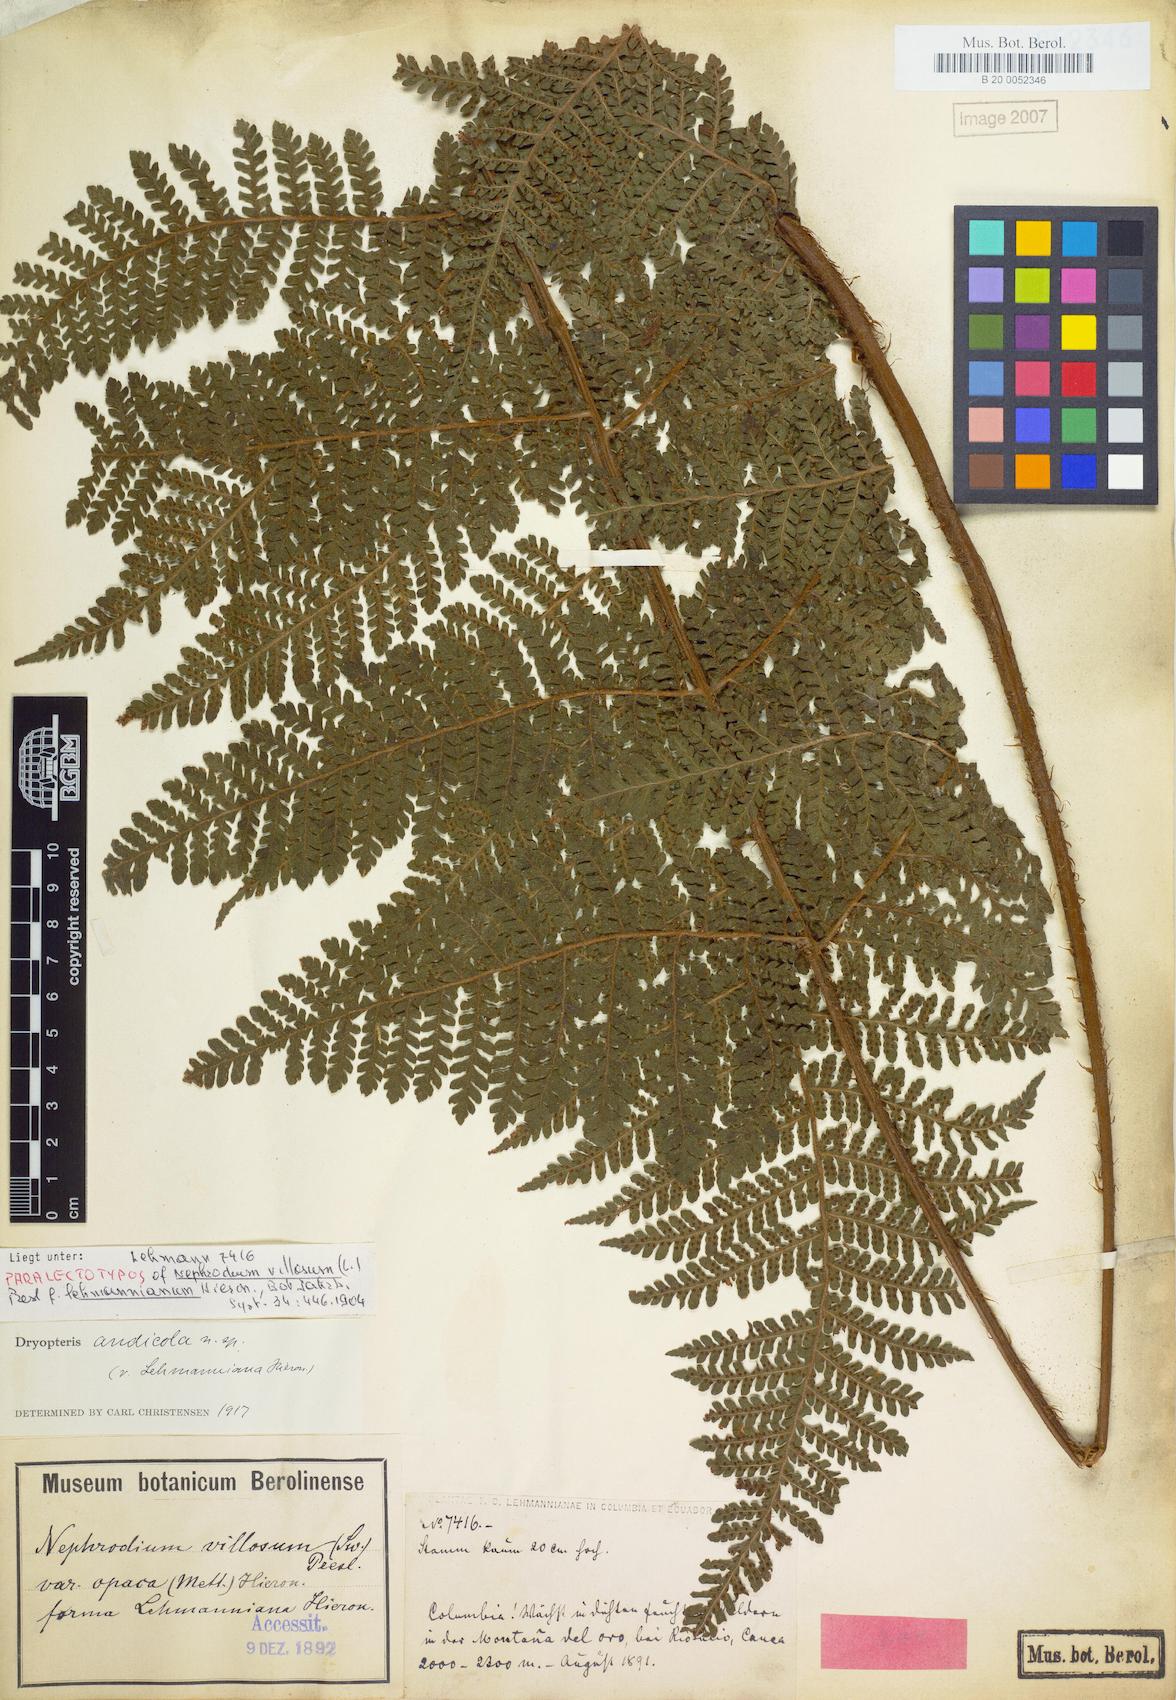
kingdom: Plantae
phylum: Tracheophyta
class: Polypodiopsida
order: Polypodiales
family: Dryopteridaceae
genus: Megalastrum
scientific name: Megalastrum andicola
